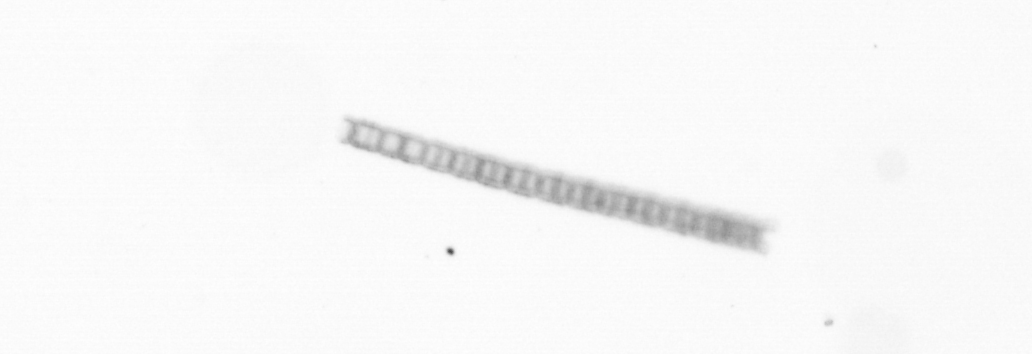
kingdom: Chromista
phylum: Ochrophyta
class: Bacillariophyceae
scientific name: Bacillariophyceae
